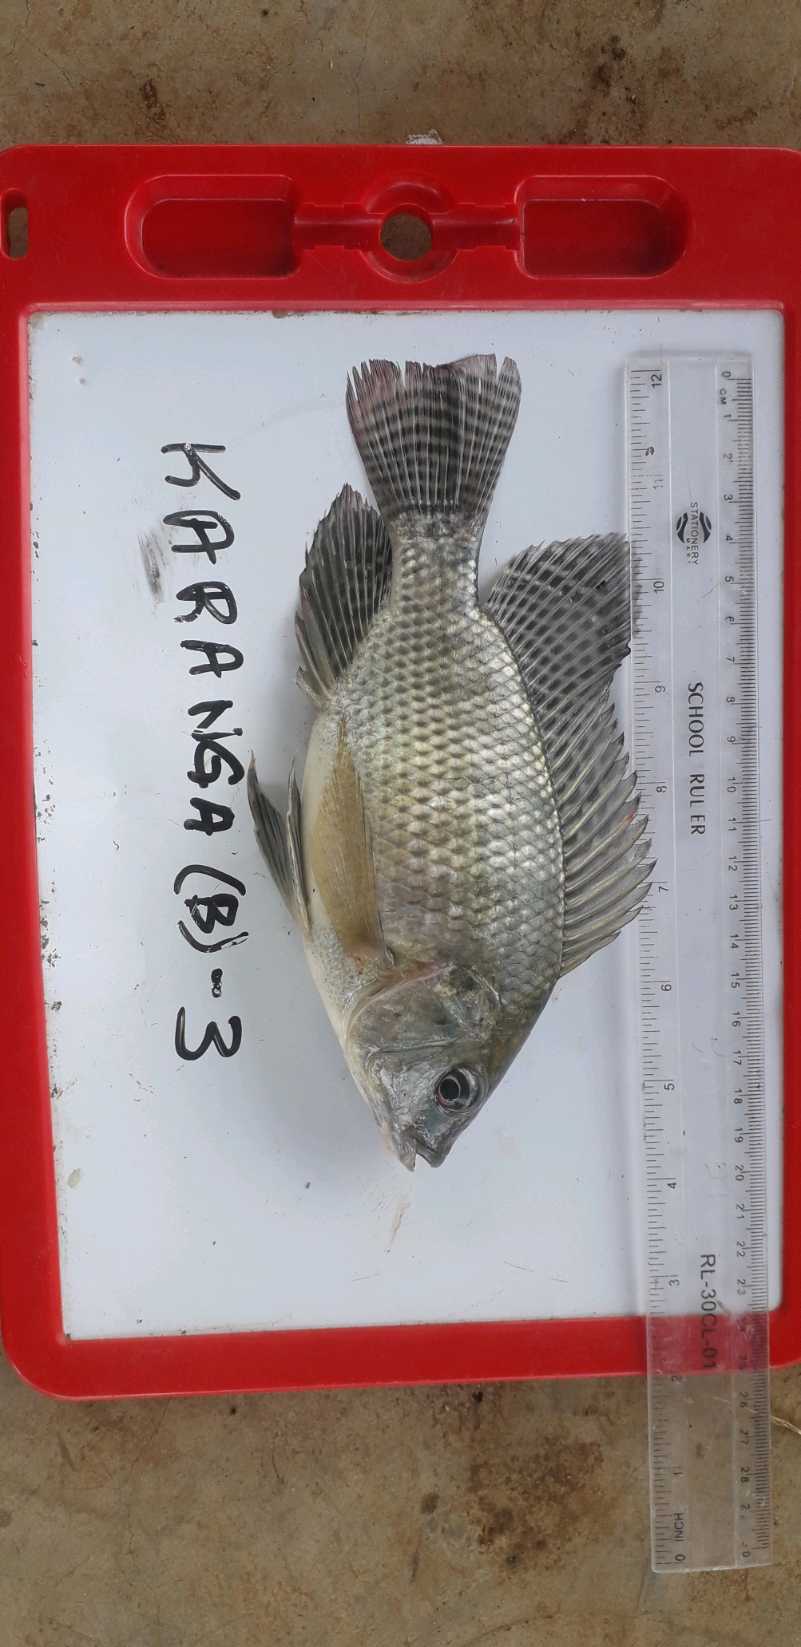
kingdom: Animalia
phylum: Chordata
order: Perciformes
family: Cichlidae
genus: Oreochromis
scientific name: Oreochromis niloticus
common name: Nile tilapia
